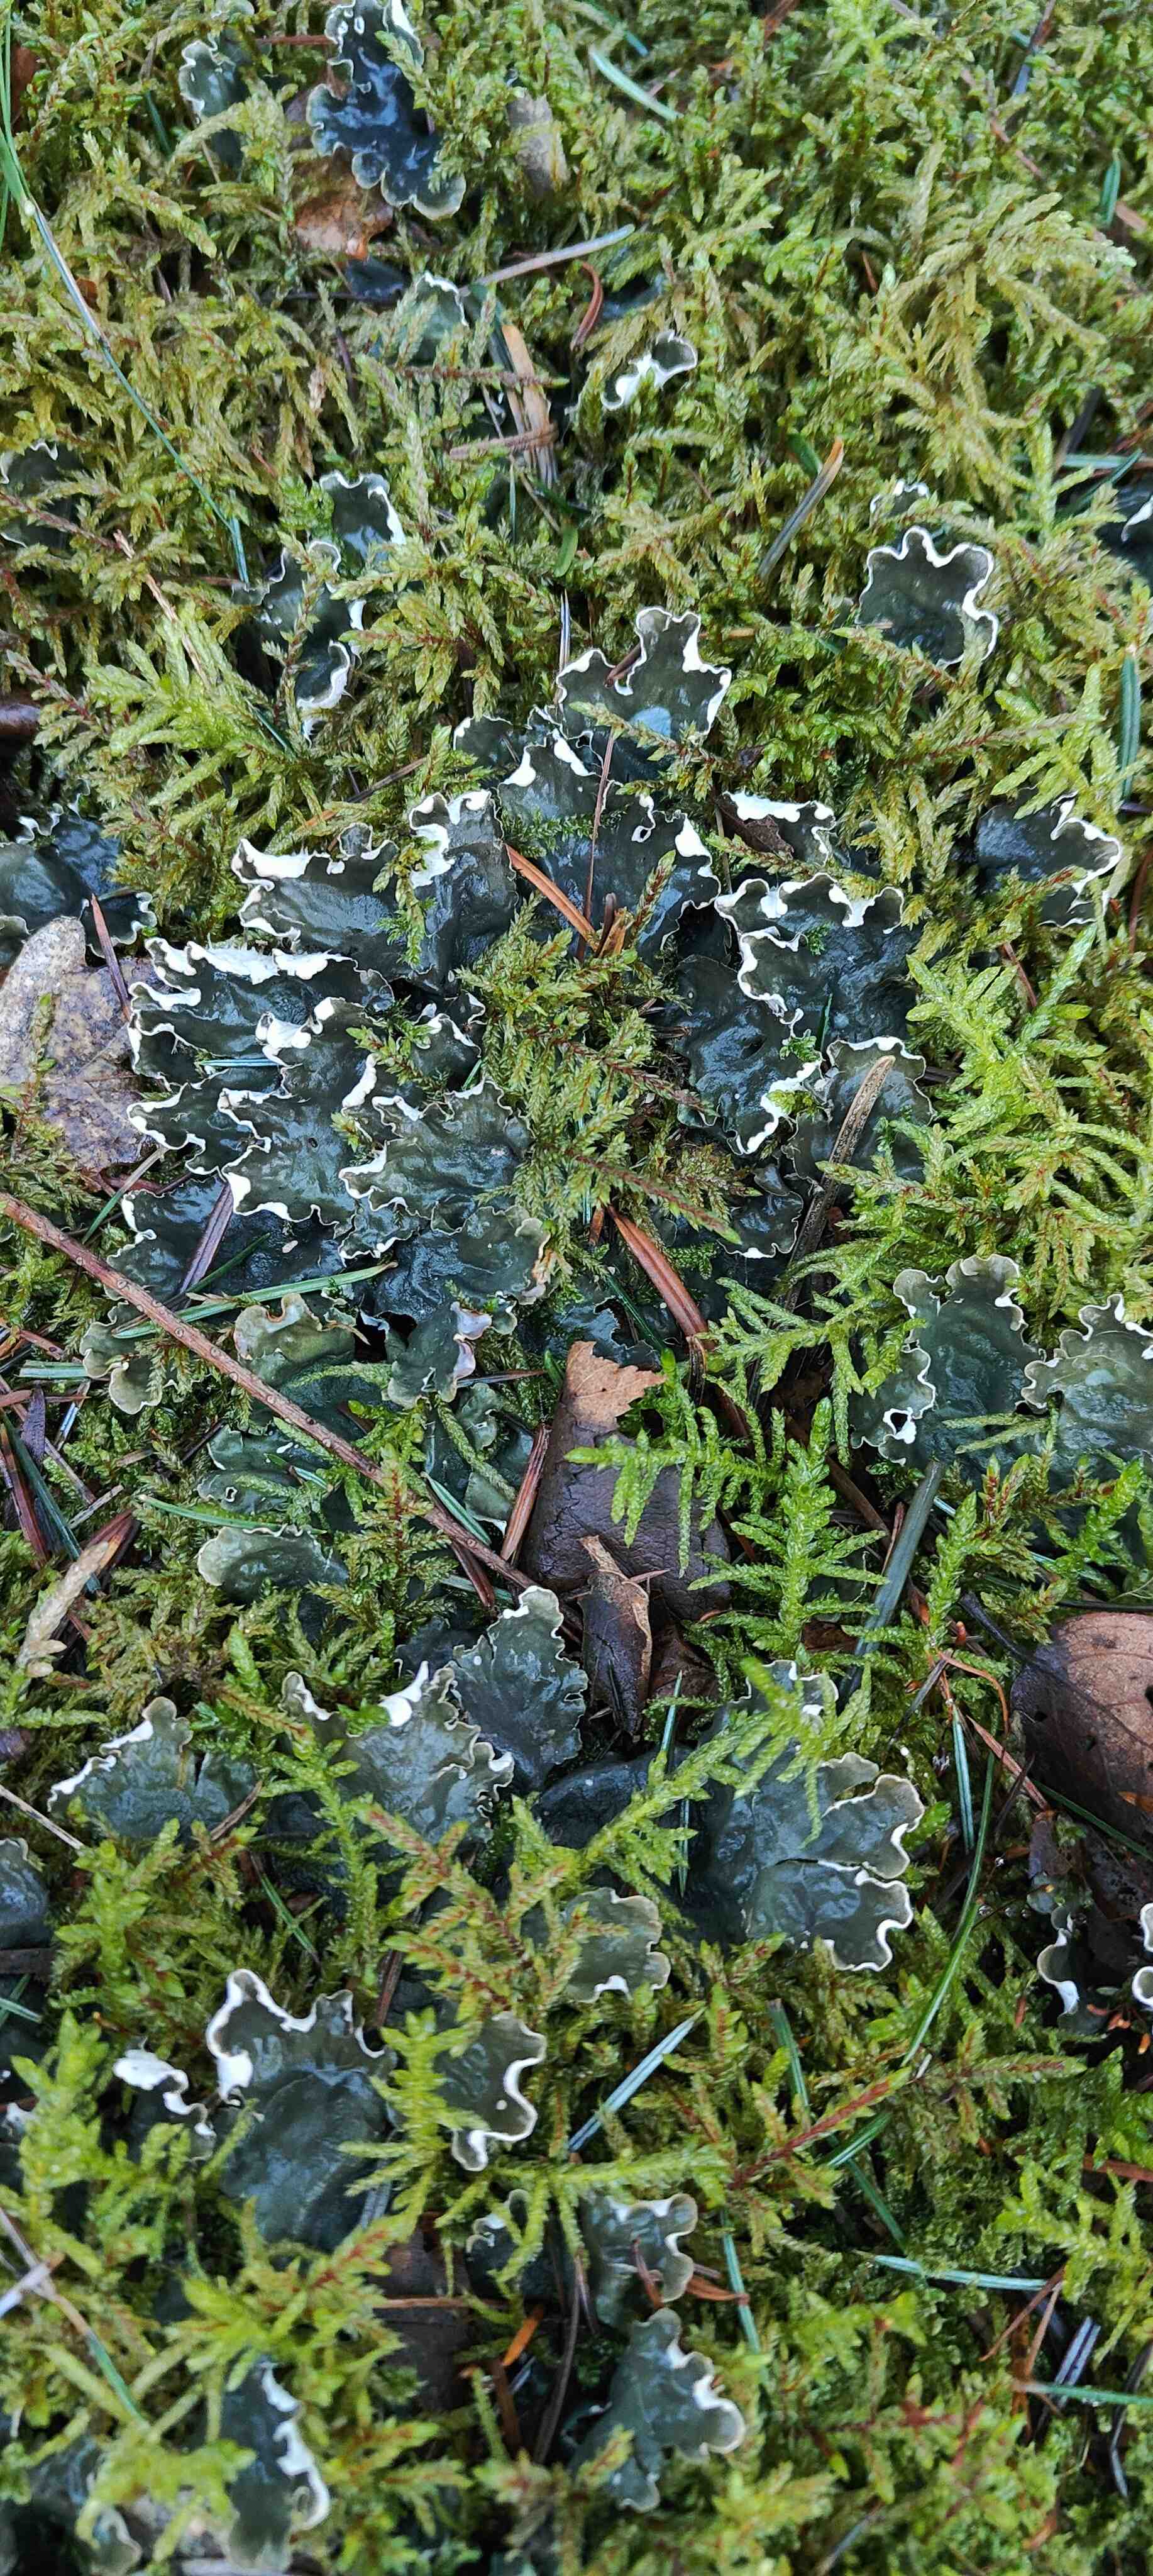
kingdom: Fungi
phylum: Ascomycota
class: Lecanoromycetes
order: Peltigerales
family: Peltigeraceae
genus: Peltigera
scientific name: Peltigera hymenina
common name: hinde-skjoldlav
